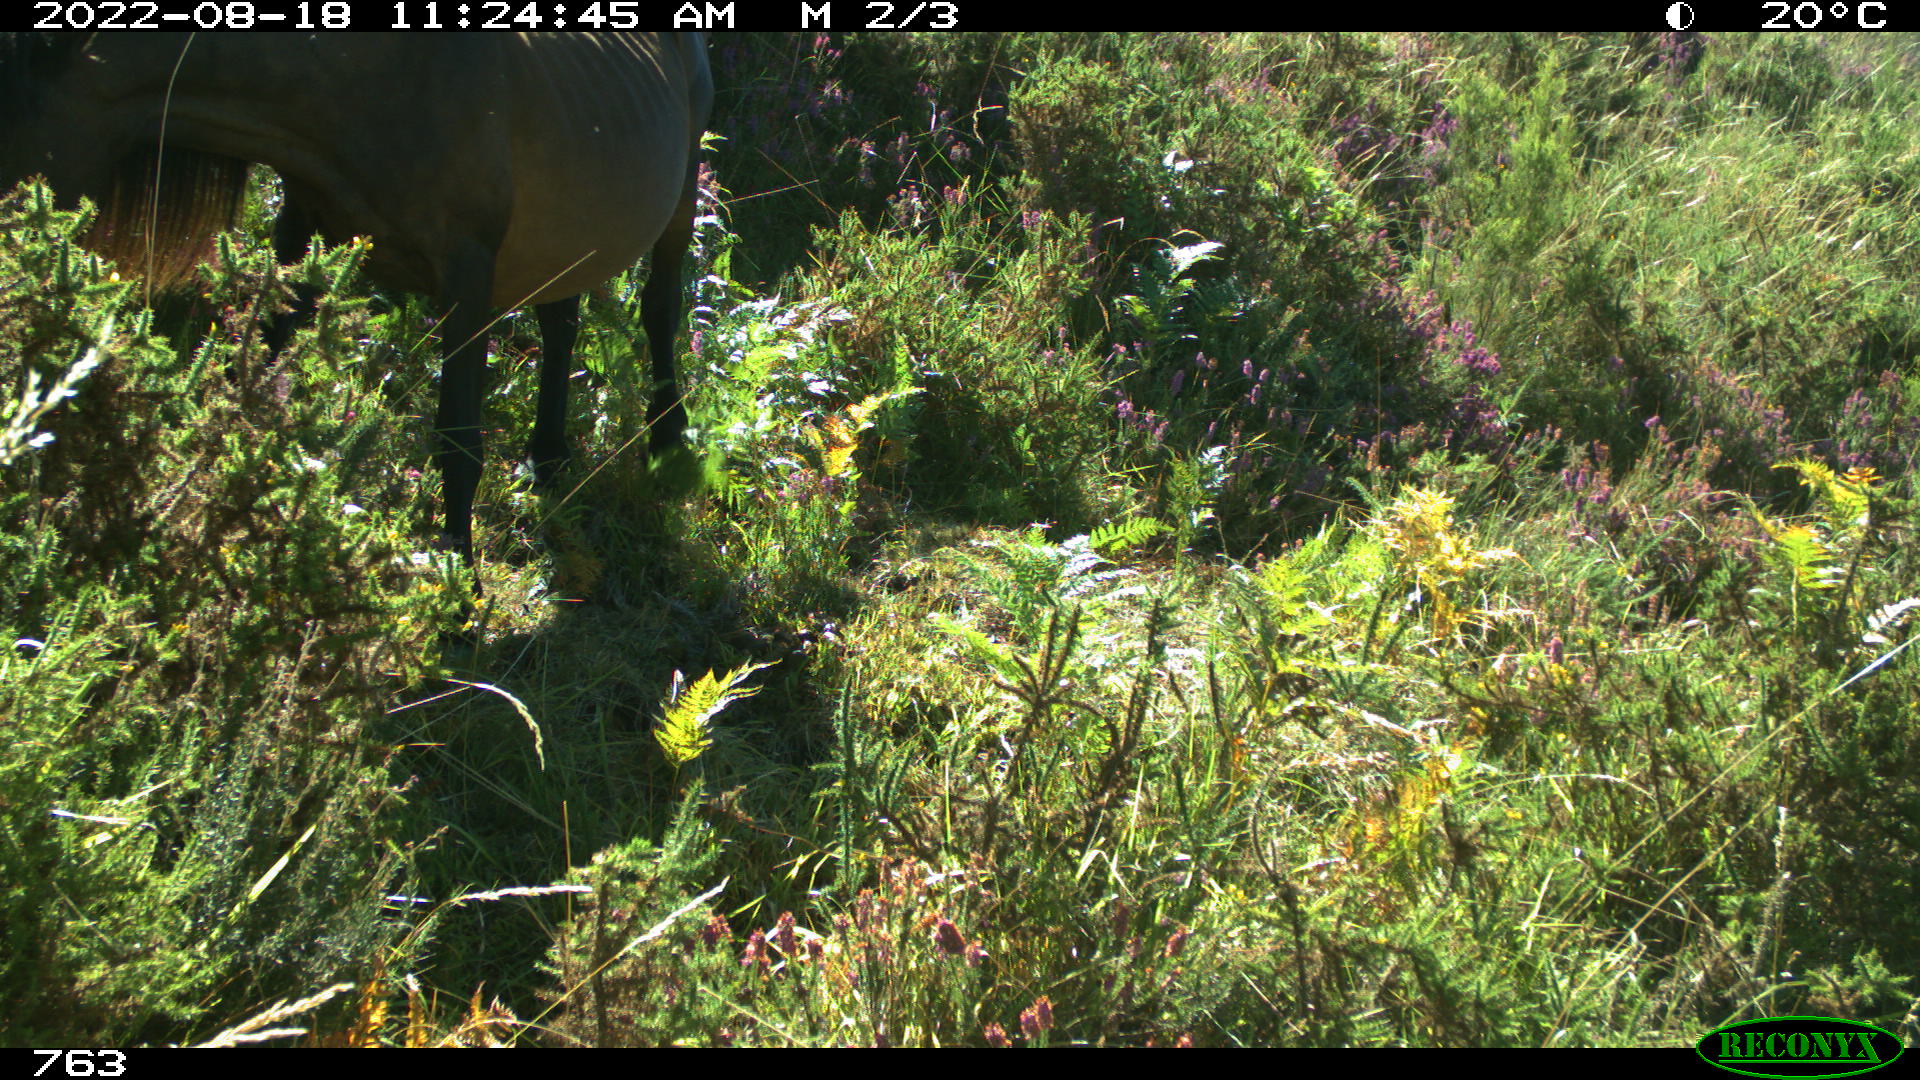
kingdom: Animalia
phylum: Chordata
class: Mammalia
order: Perissodactyla
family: Equidae
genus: Equus
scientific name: Equus caballus
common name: Horse
